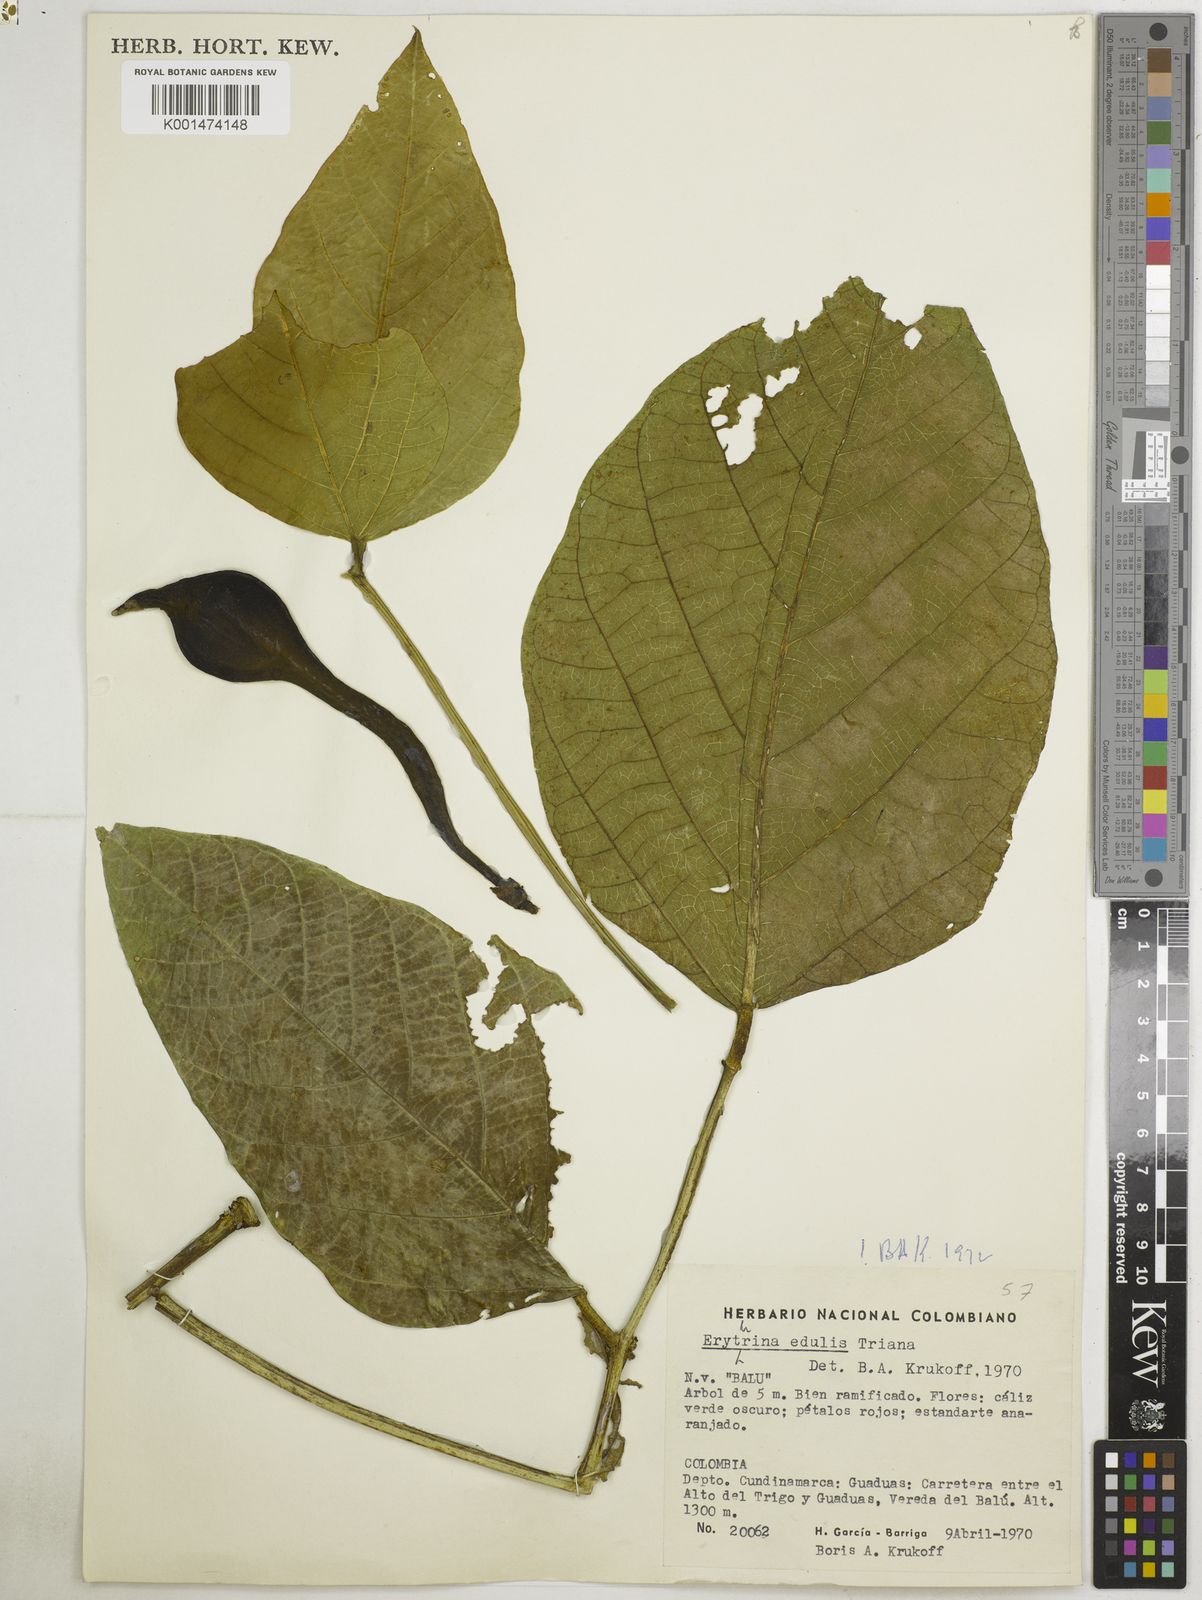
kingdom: Plantae
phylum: Tracheophyta
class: Magnoliopsida
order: Fabales
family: Fabaceae
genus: Erythrina
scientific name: Erythrina edulis
